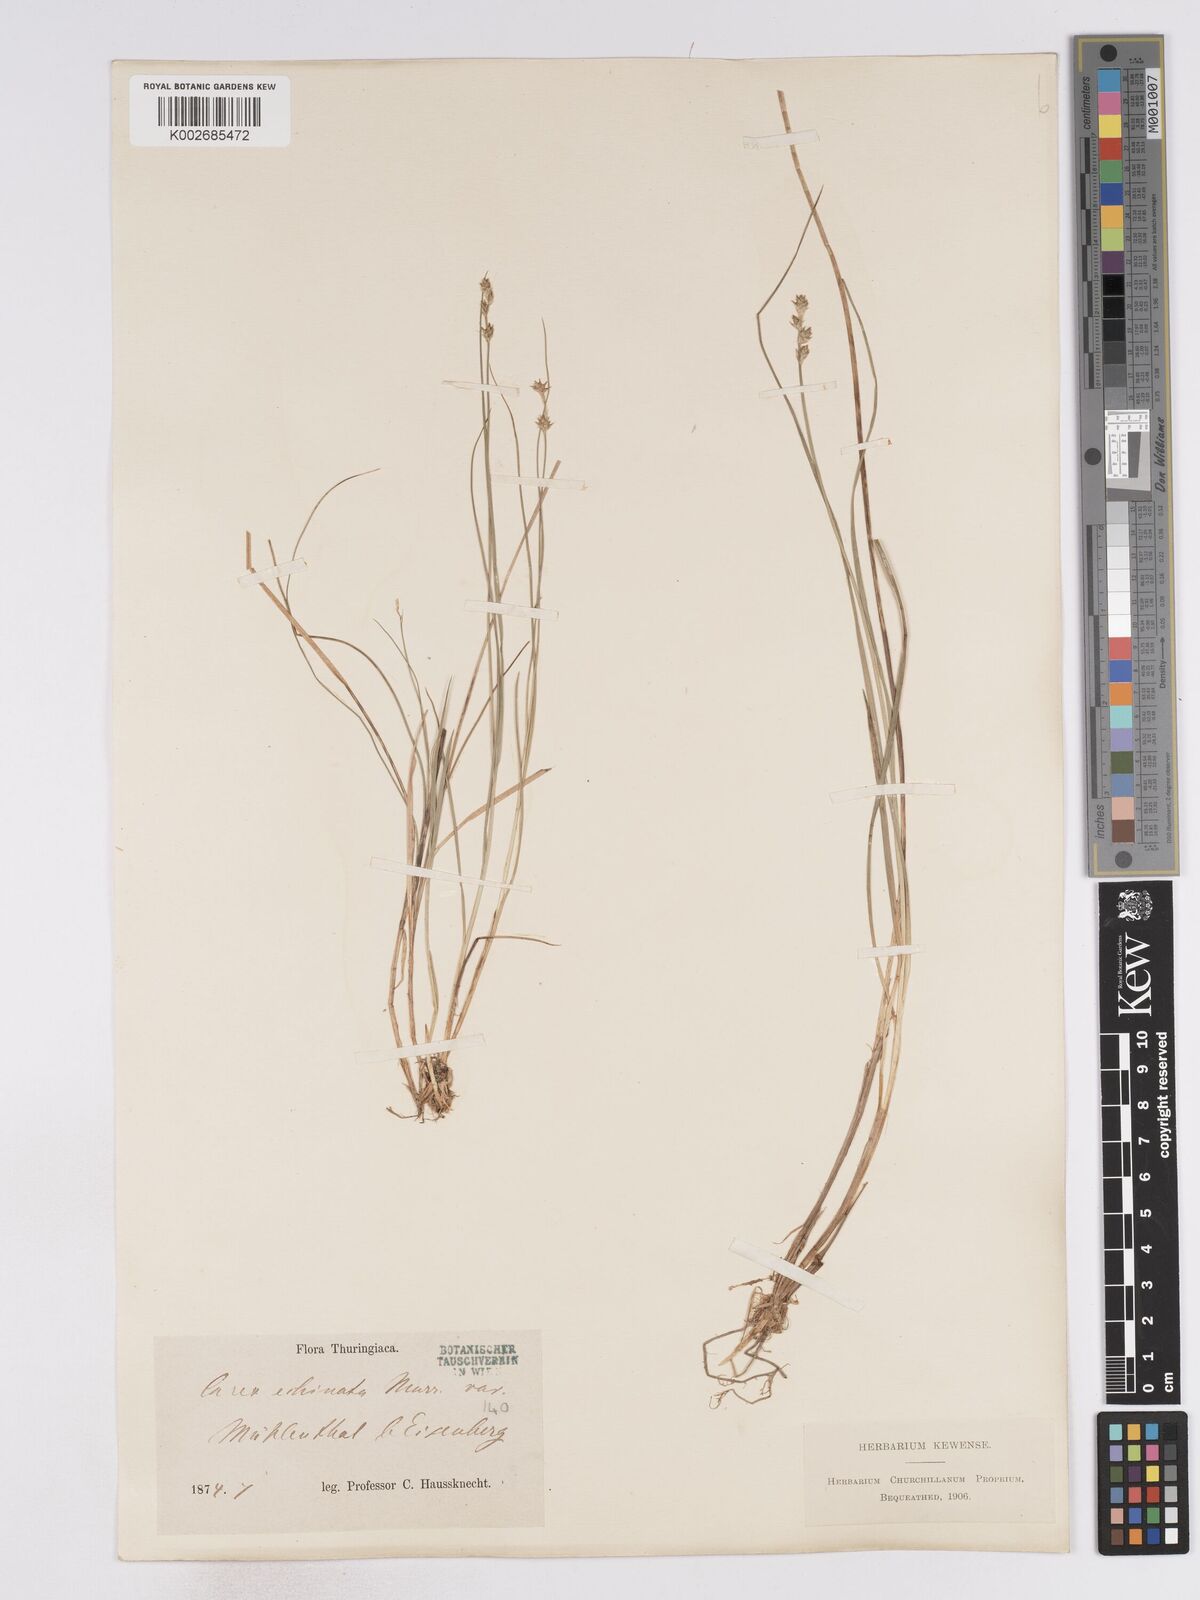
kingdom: Plantae
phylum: Tracheophyta
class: Liliopsida
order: Poales
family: Cyperaceae
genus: Carex
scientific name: Carex echinata
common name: Star sedge
